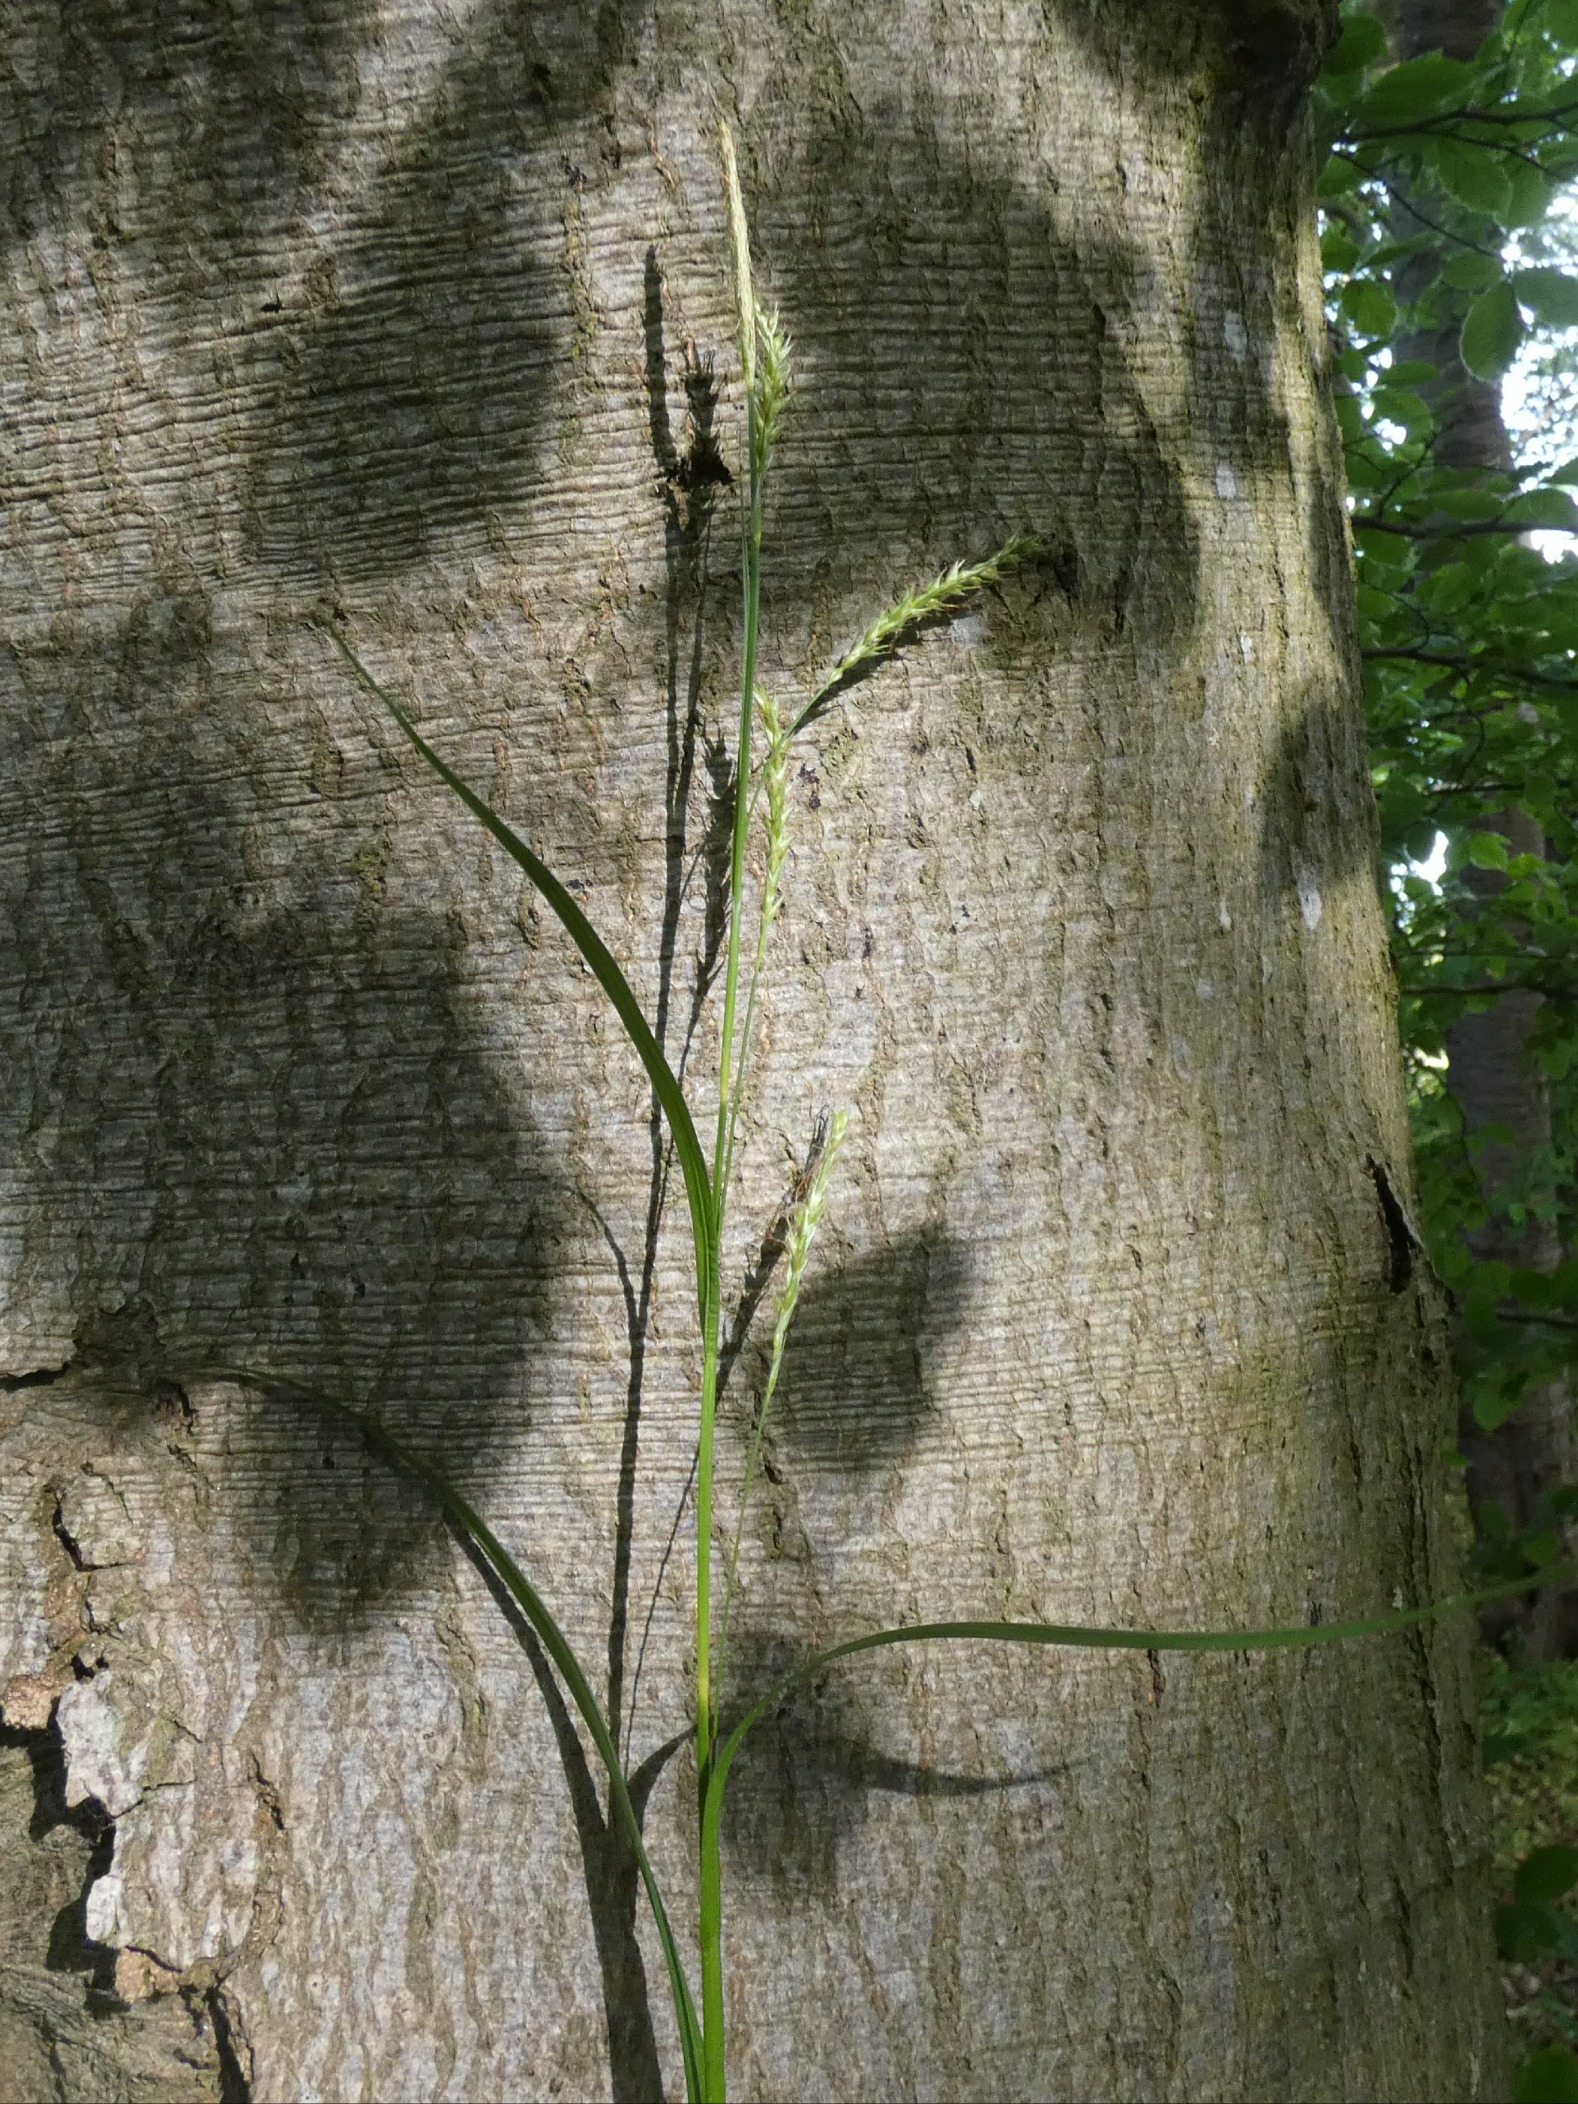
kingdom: Plantae
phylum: Tracheophyta
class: Liliopsida
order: Poales
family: Cyperaceae
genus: Carex
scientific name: Carex sylvatica
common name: Skov-star
